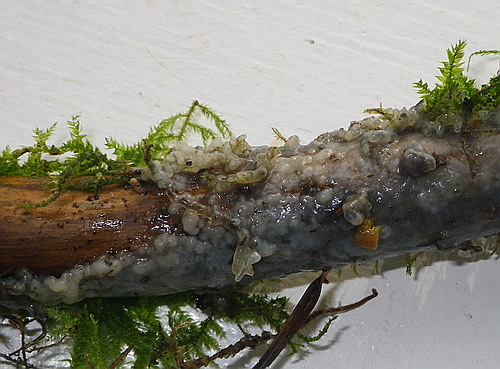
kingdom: Fungi
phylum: Basidiomycota
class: Agaricomycetes
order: Sebacinales
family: Sebacinaceae
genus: Sebacina
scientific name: Sebacina incrustans
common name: krybende bævretalg
